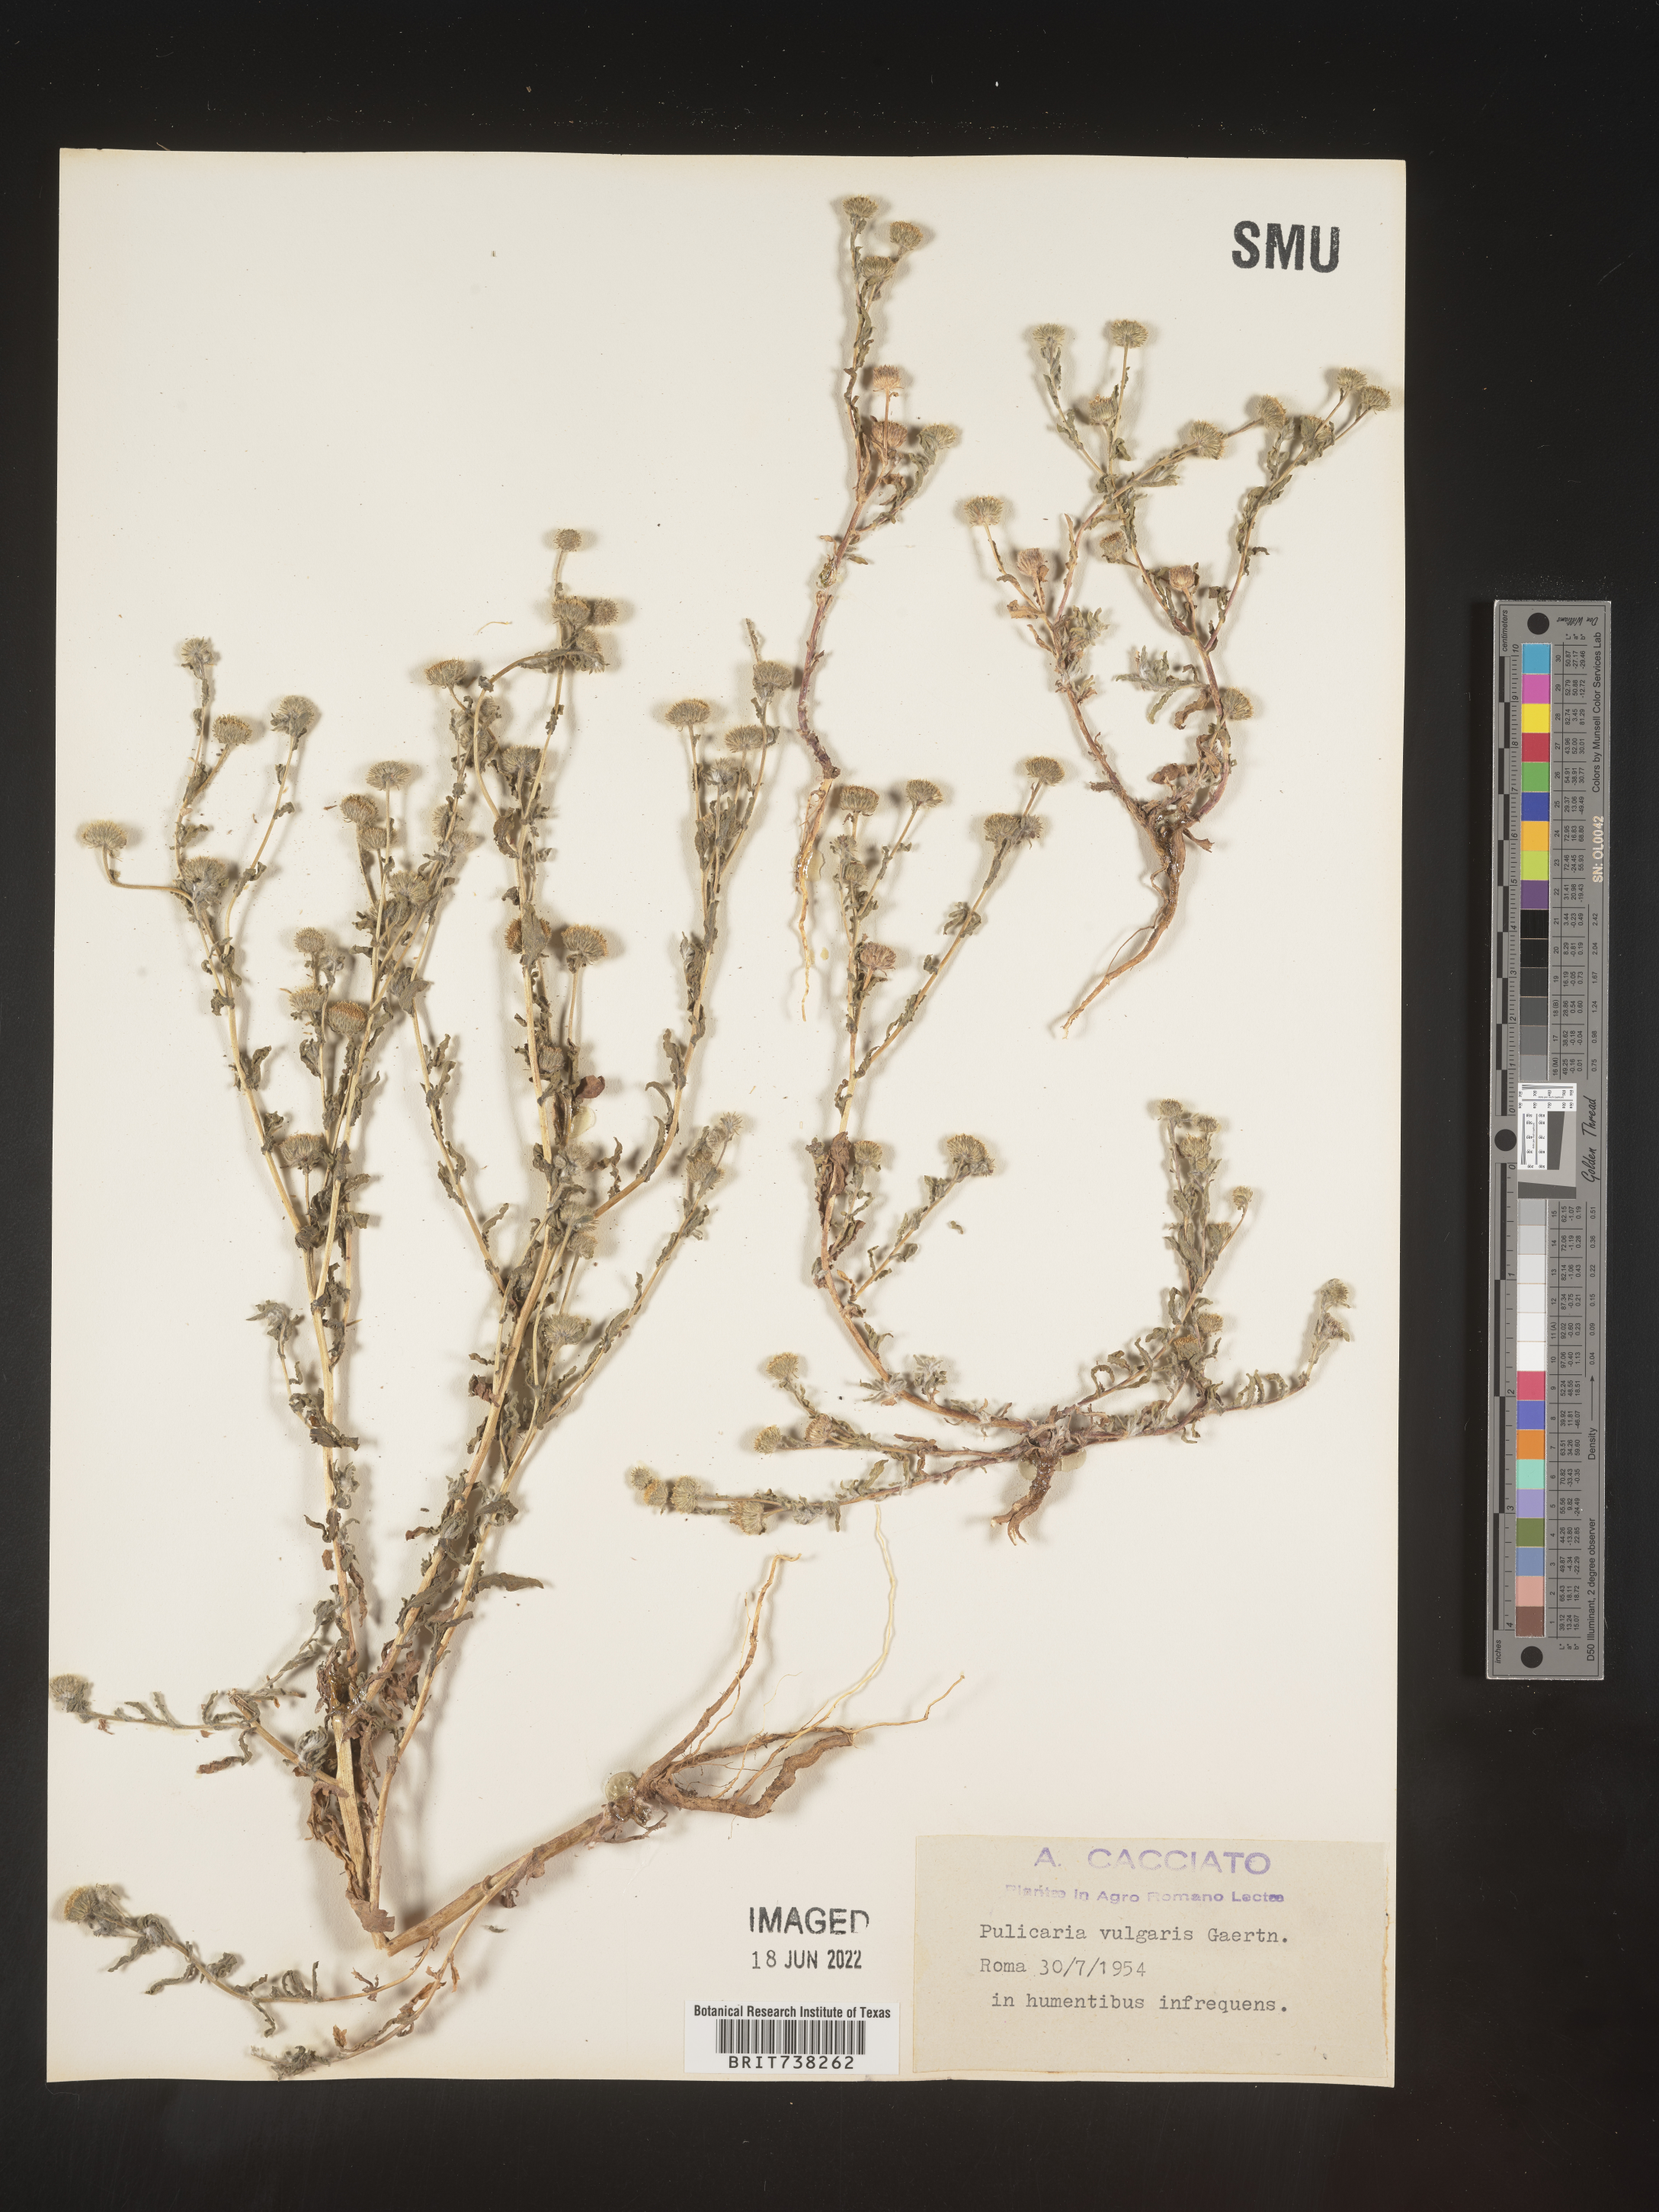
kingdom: Plantae
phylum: Tracheophyta
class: Magnoliopsida
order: Asterales
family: Asteraceae
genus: Pulicaria
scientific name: Pulicaria
